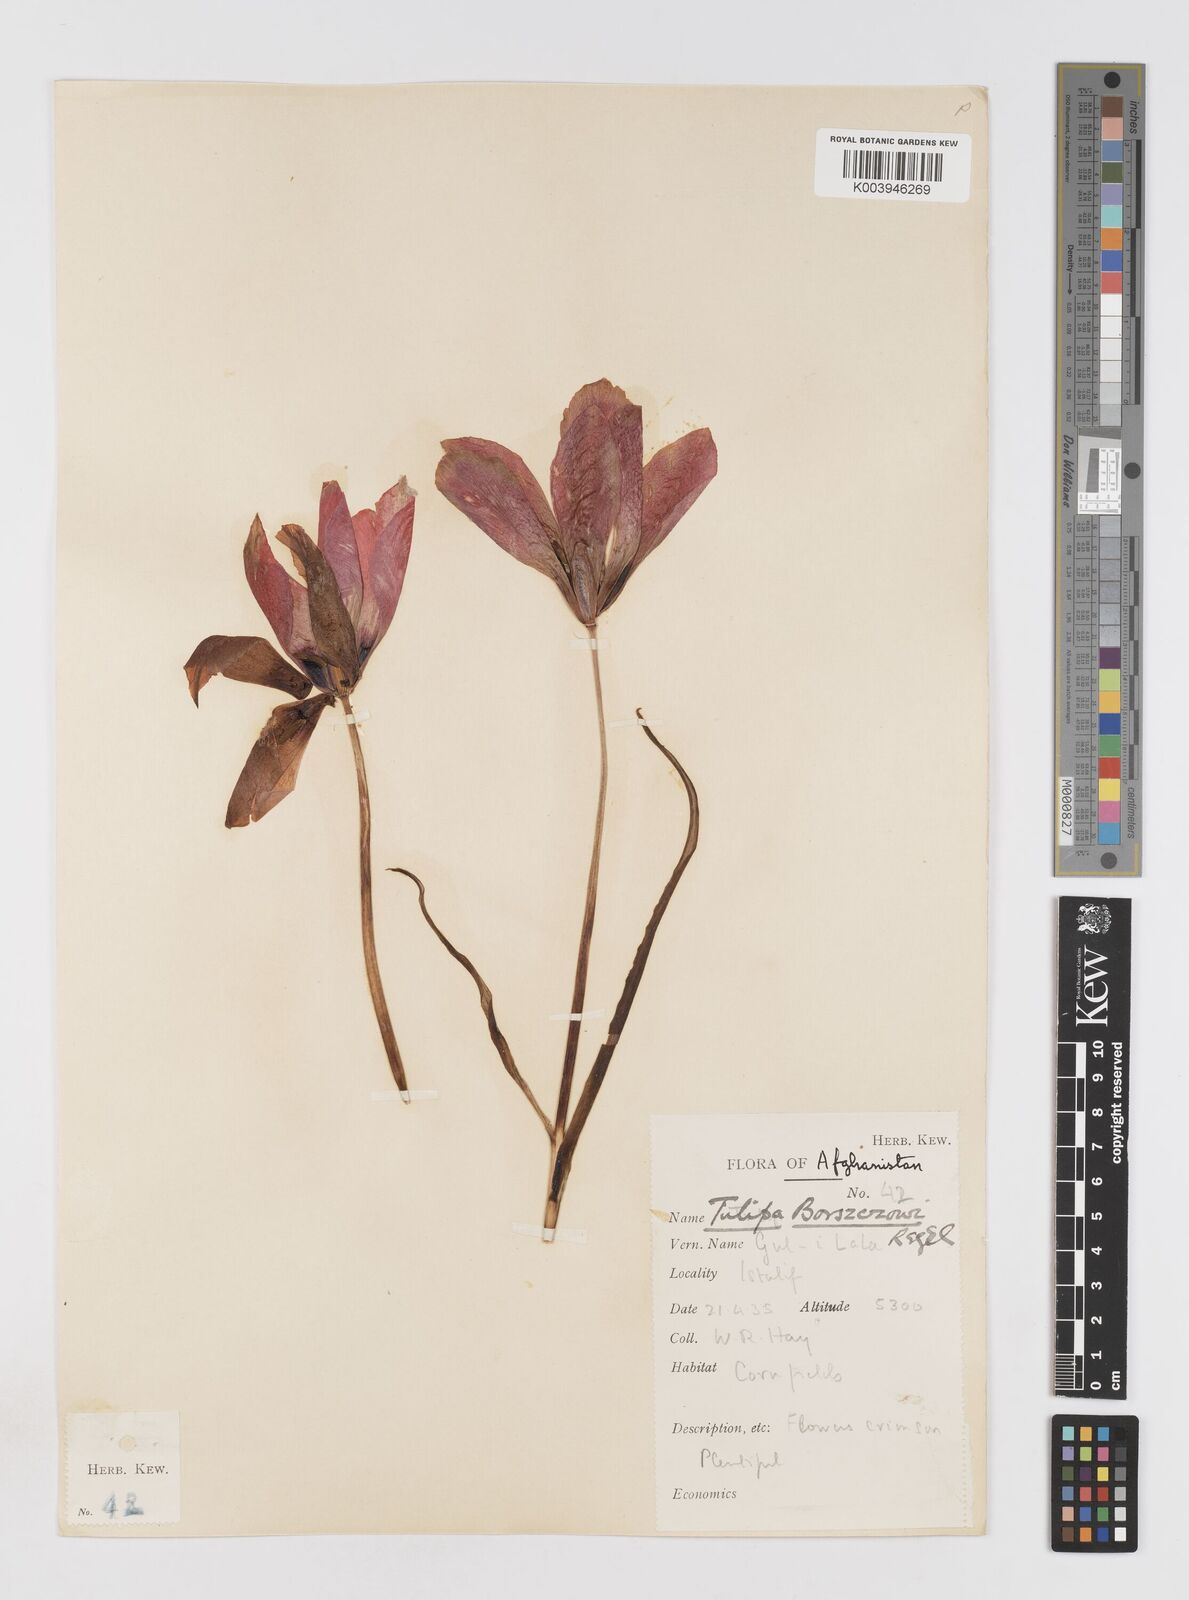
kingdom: Plantae
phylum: Tracheophyta
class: Liliopsida
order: Liliales
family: Liliaceae
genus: Tulipa
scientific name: Tulipa clusiana
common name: Lady tulip
